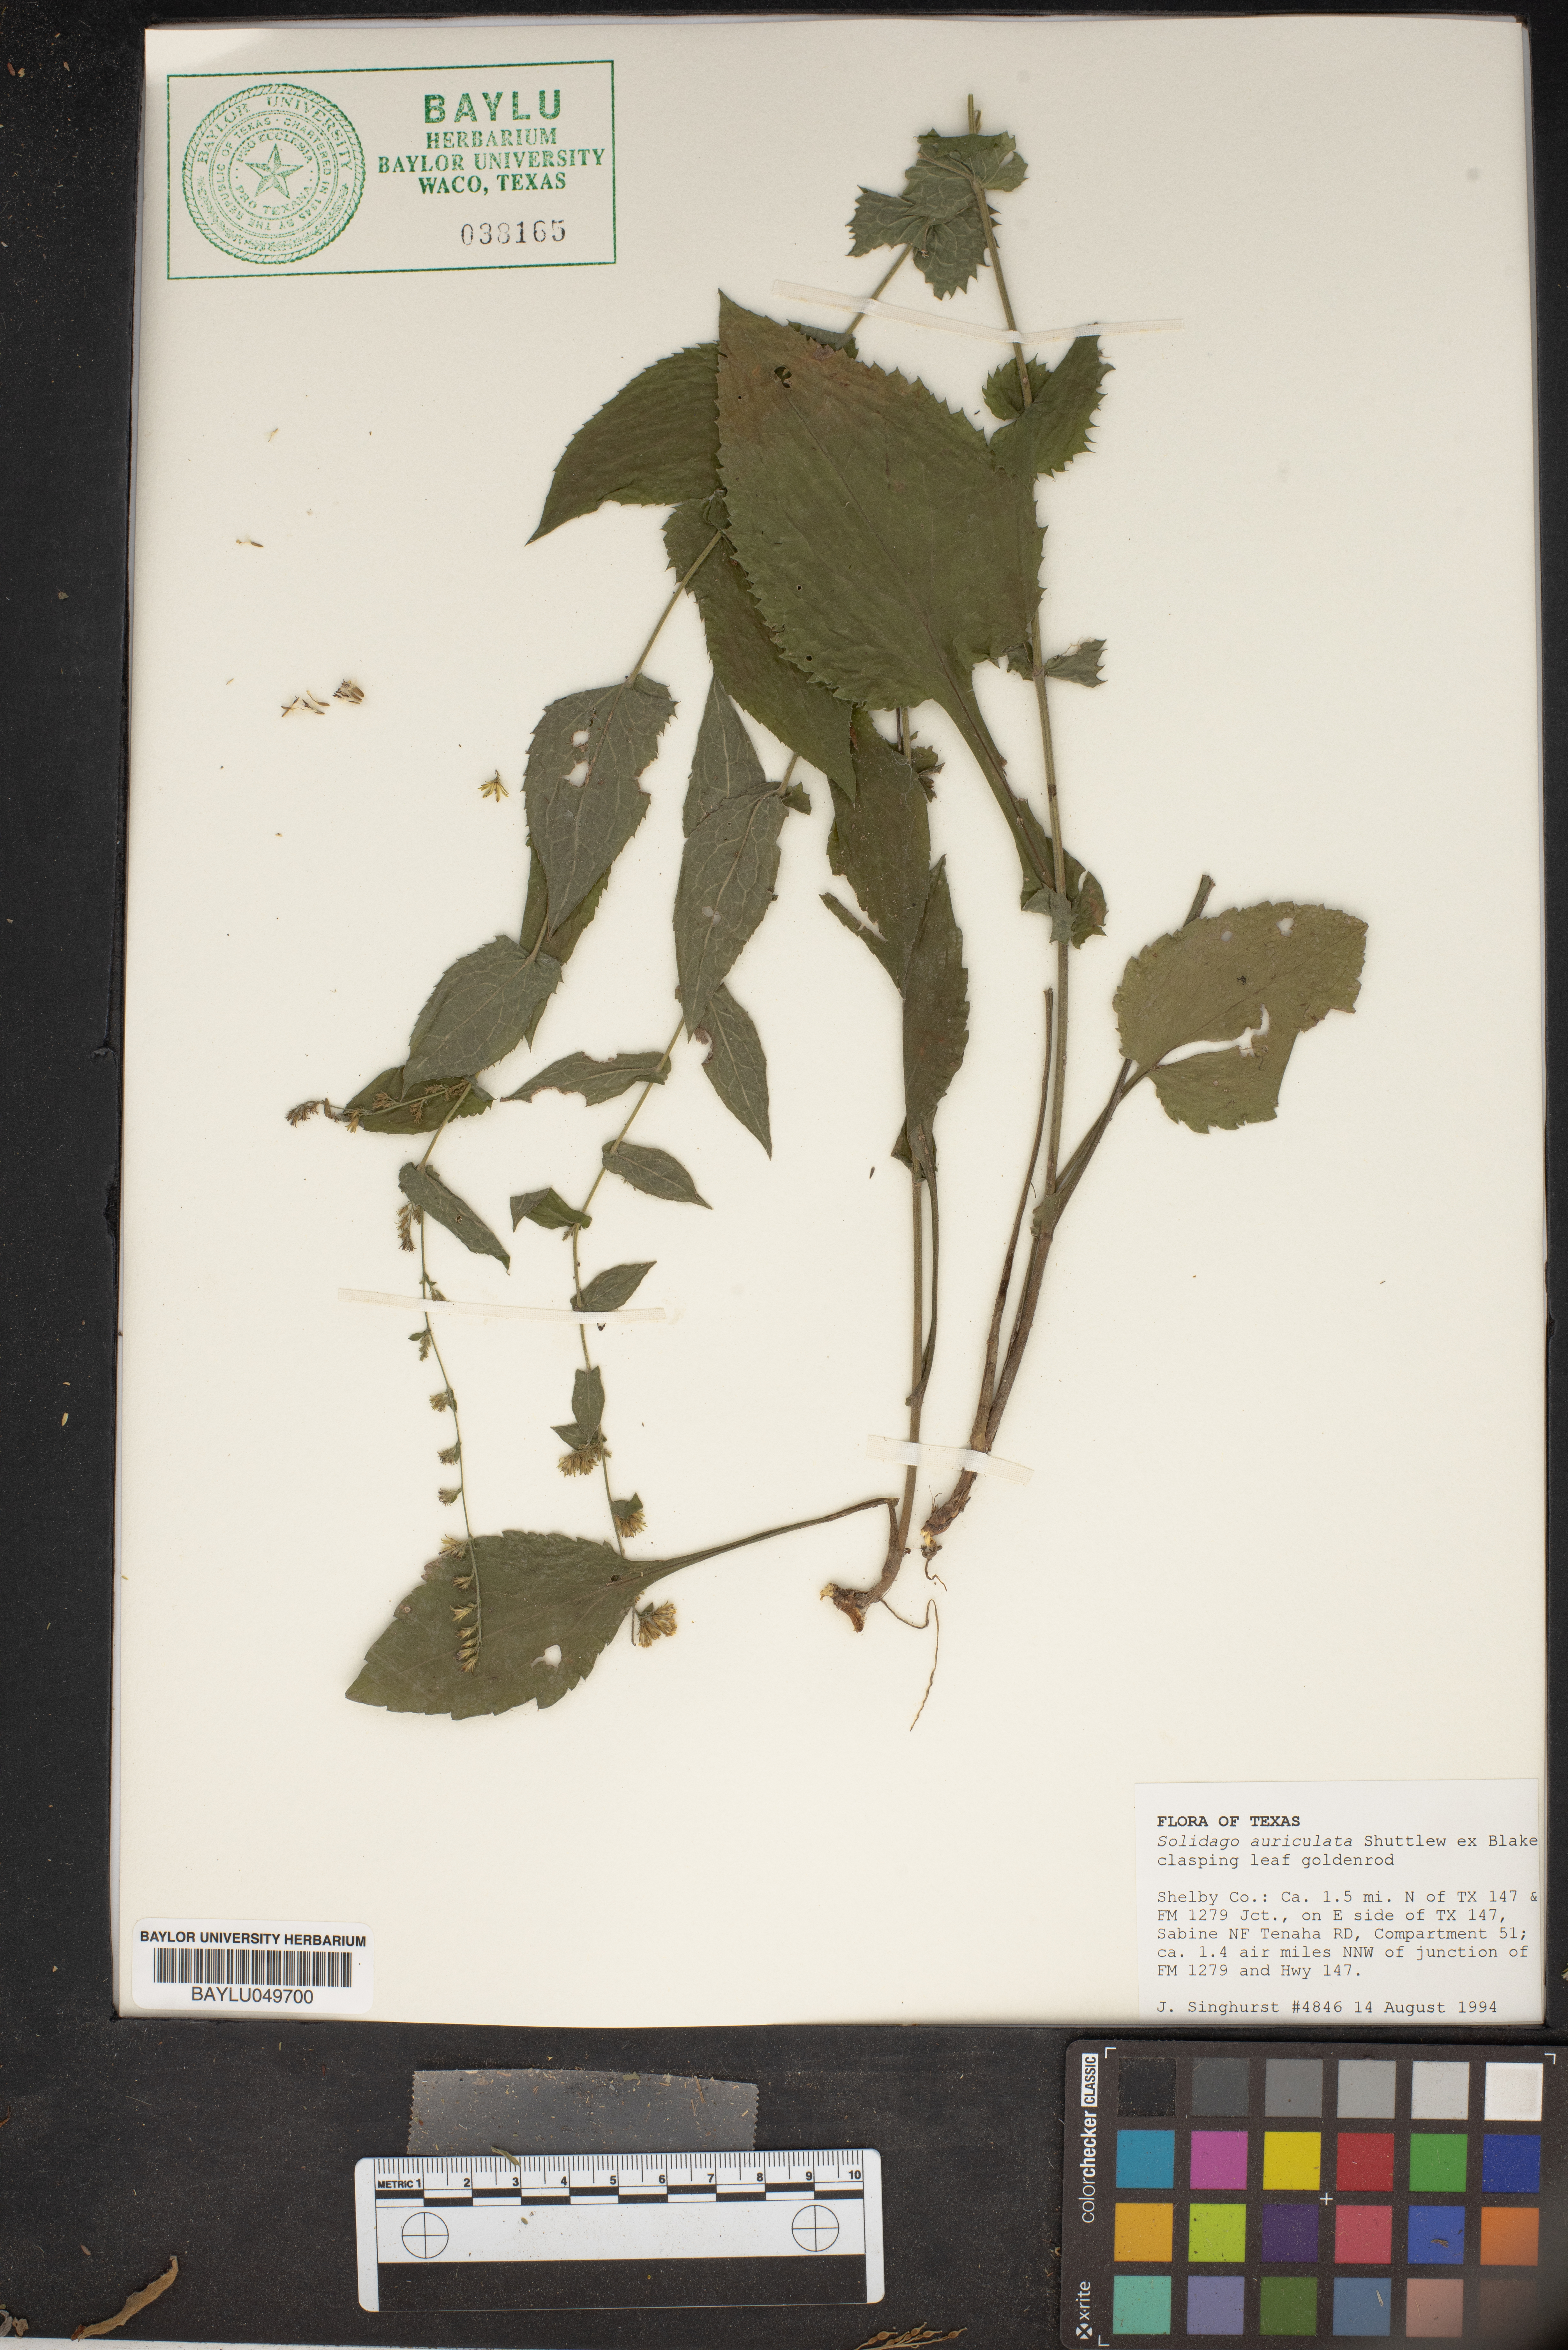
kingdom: Plantae
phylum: Tracheophyta
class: Magnoliopsida
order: Asterales
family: Asteraceae
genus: Solidago
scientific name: Solidago auriculata
